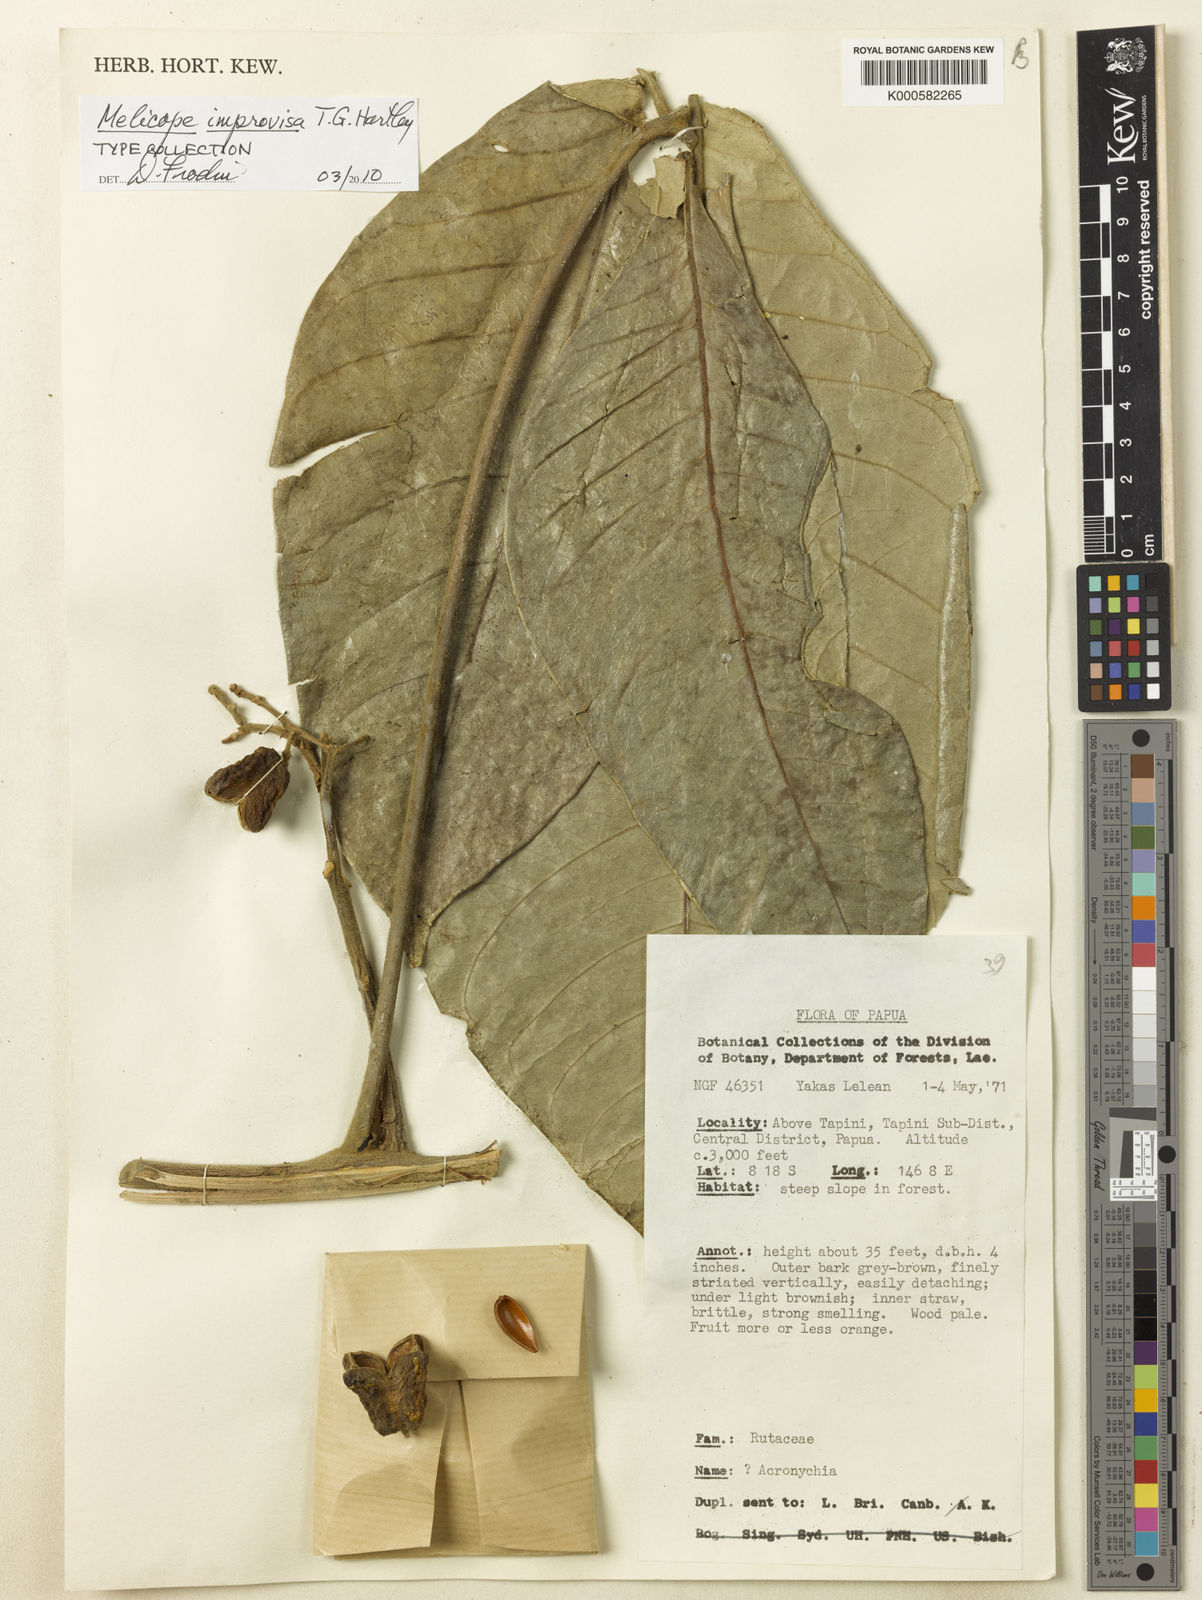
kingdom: Plantae
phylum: Tracheophyta
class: Magnoliopsida
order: Sapindales
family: Rutaceae
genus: Melicope
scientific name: Melicope improvisa
